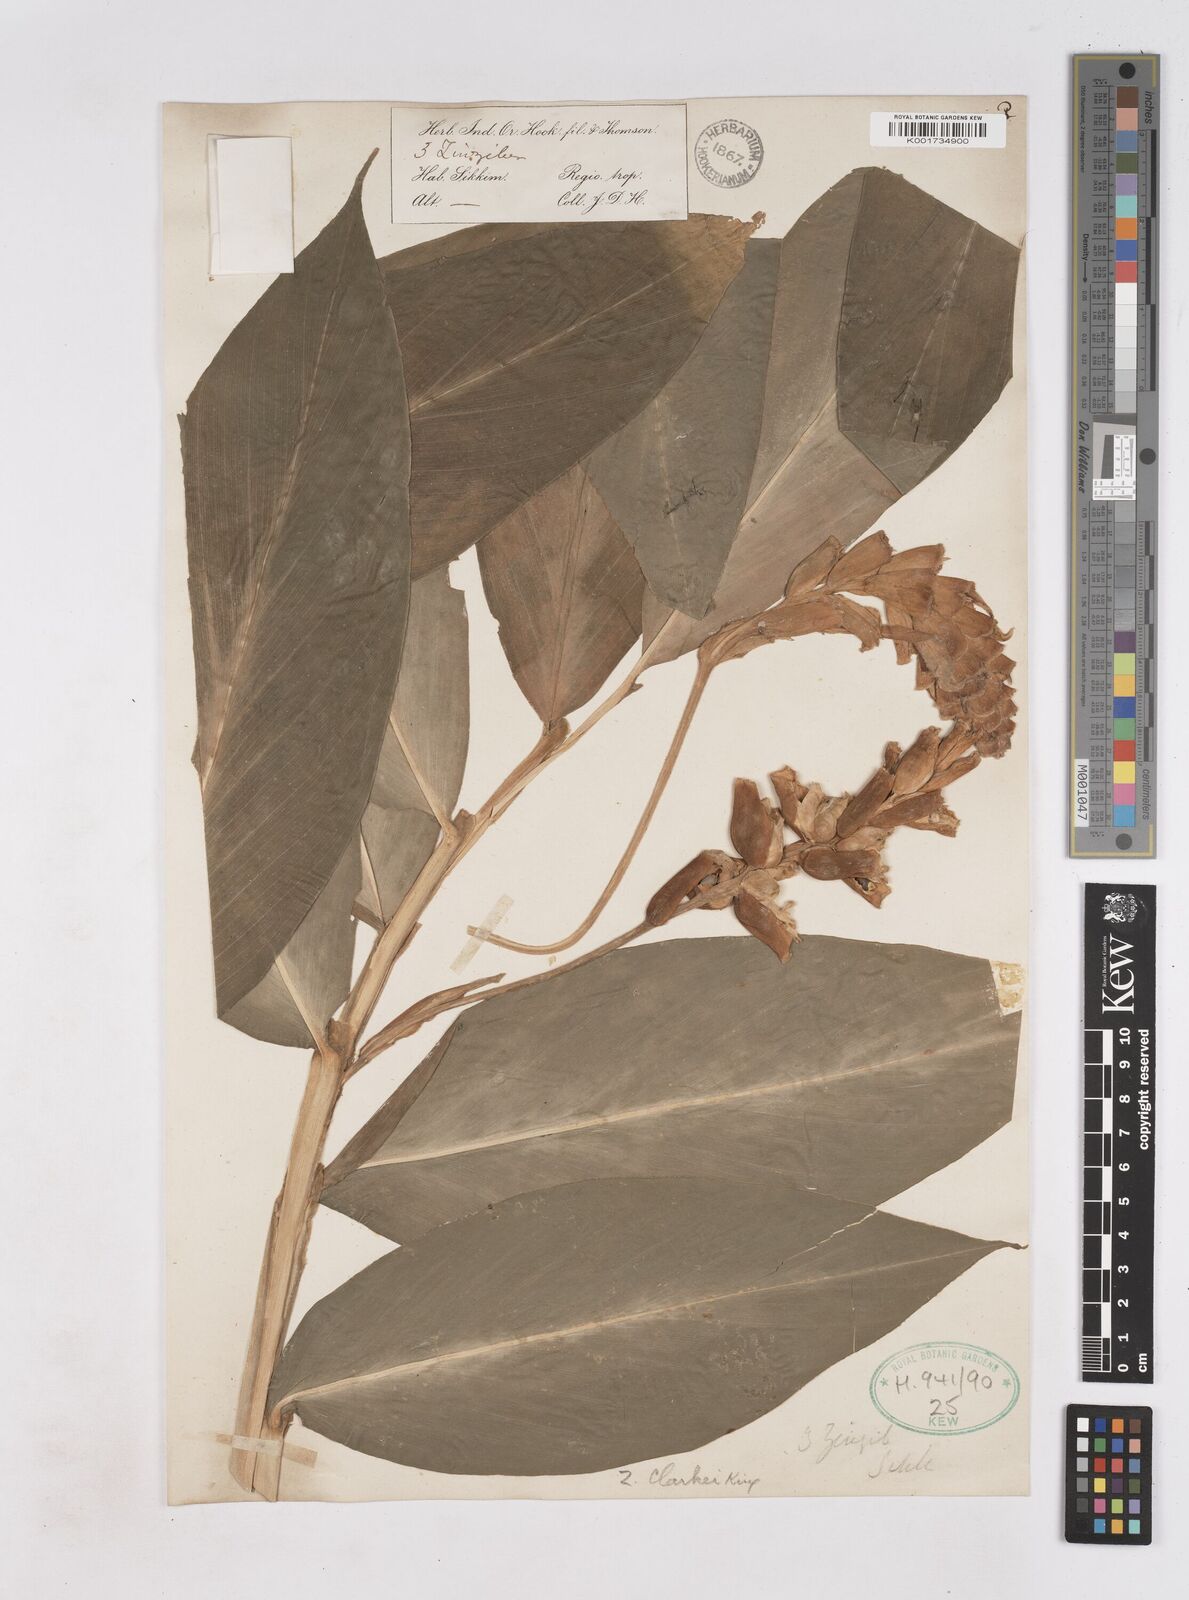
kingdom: Plantae
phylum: Tracheophyta
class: Liliopsida
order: Zingiberales
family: Zingiberaceae
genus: Zingiber
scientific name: Zingiber clarkei
